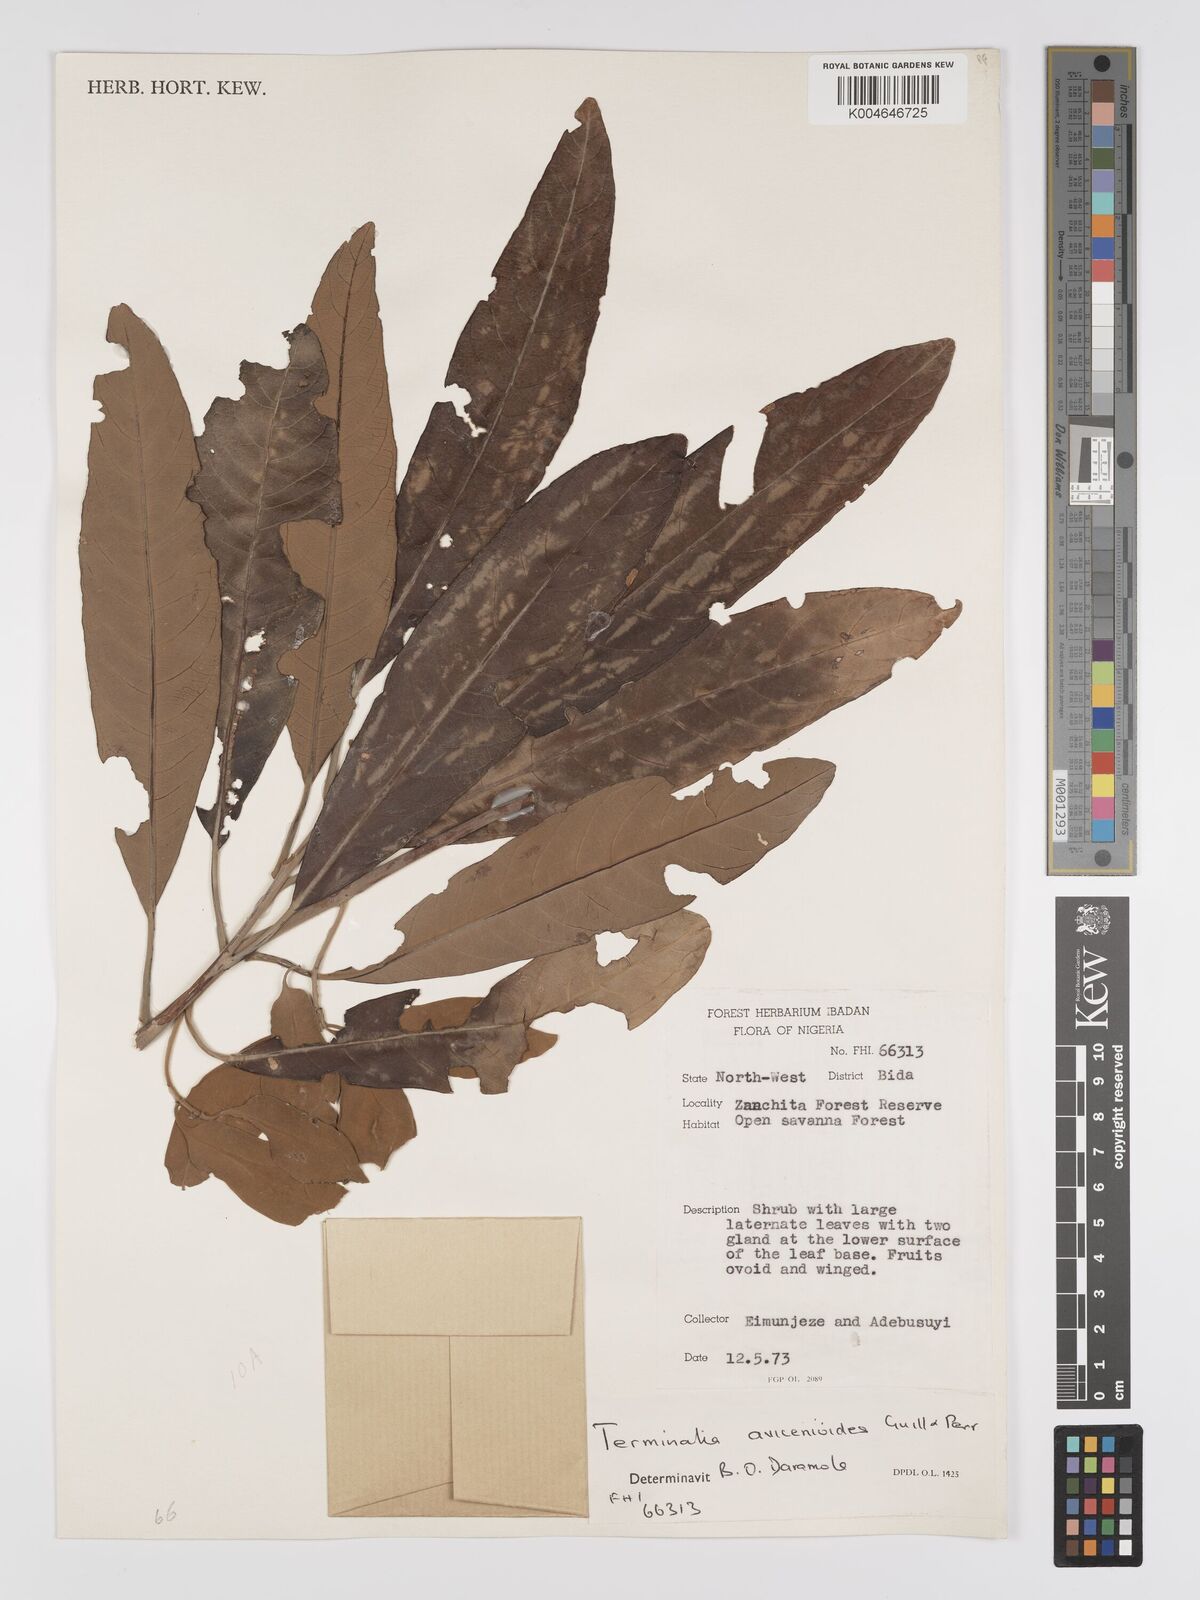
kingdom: Plantae
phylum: Tracheophyta
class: Magnoliopsida
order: Myrtales
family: Combretaceae
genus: Terminalia
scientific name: Terminalia avicennioides
